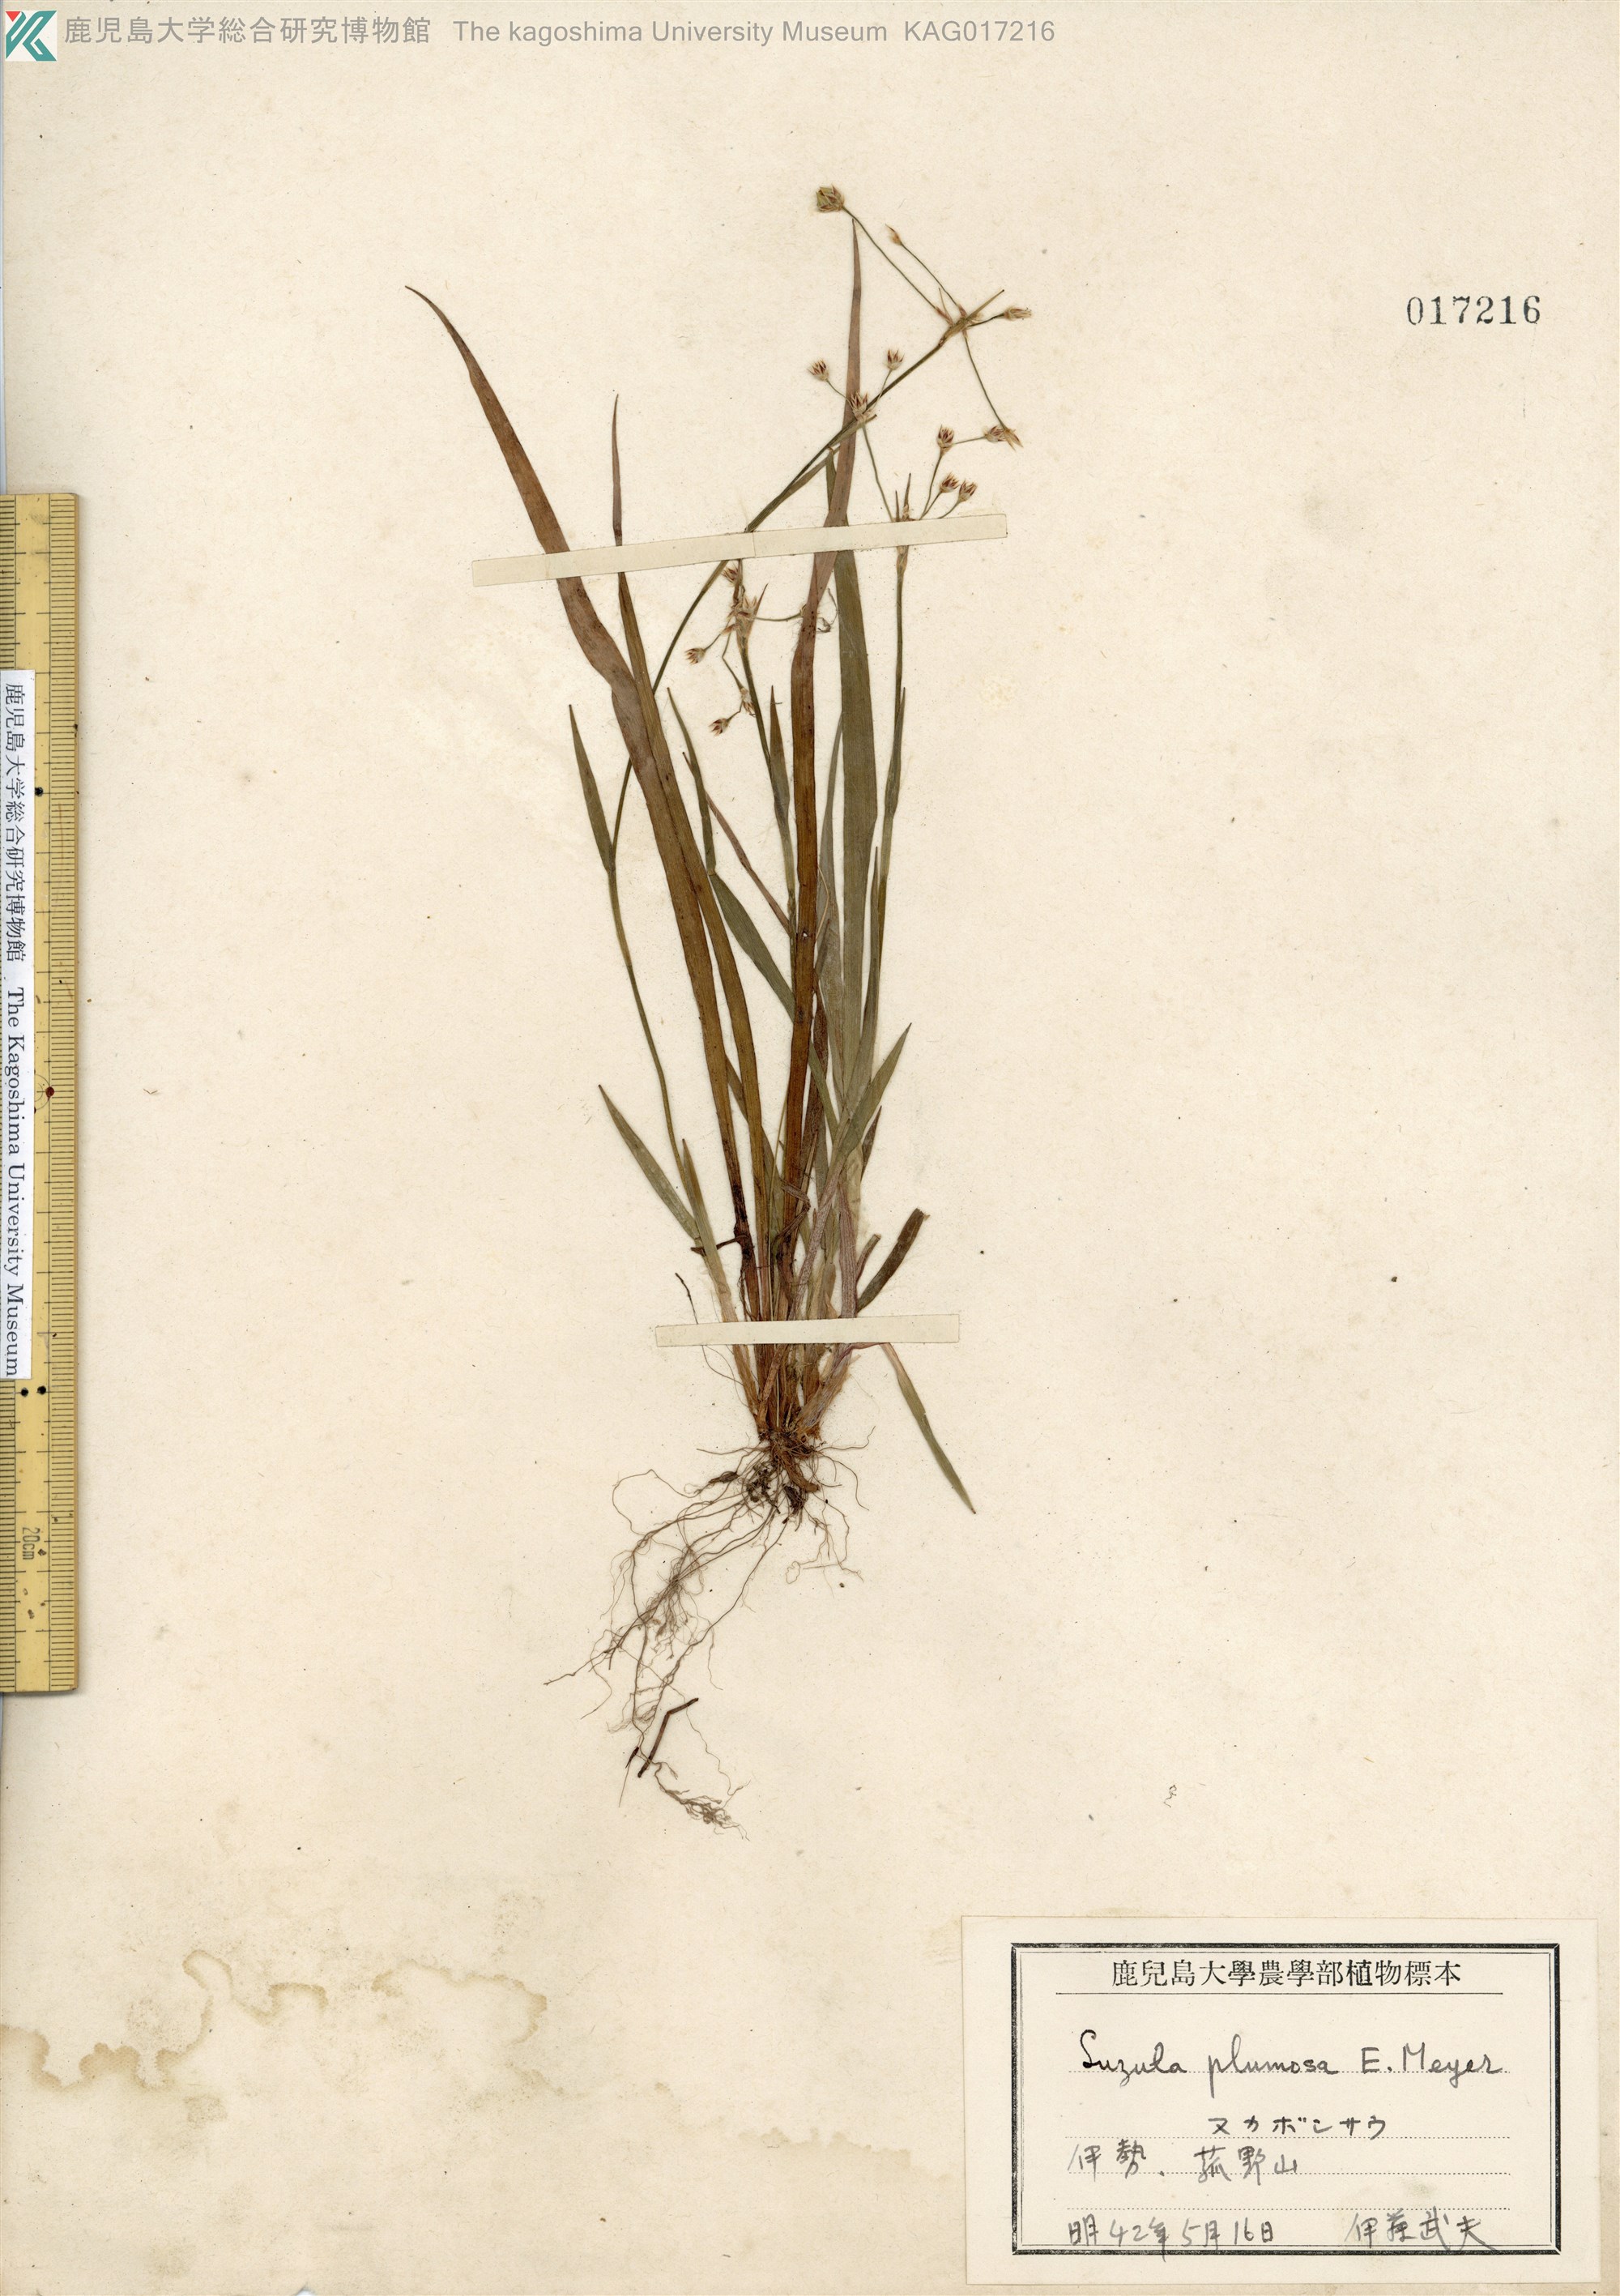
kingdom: Plantae
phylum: Tracheophyta
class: Liliopsida
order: Poales
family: Juncaceae
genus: Luzula
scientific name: Luzula plumosa
